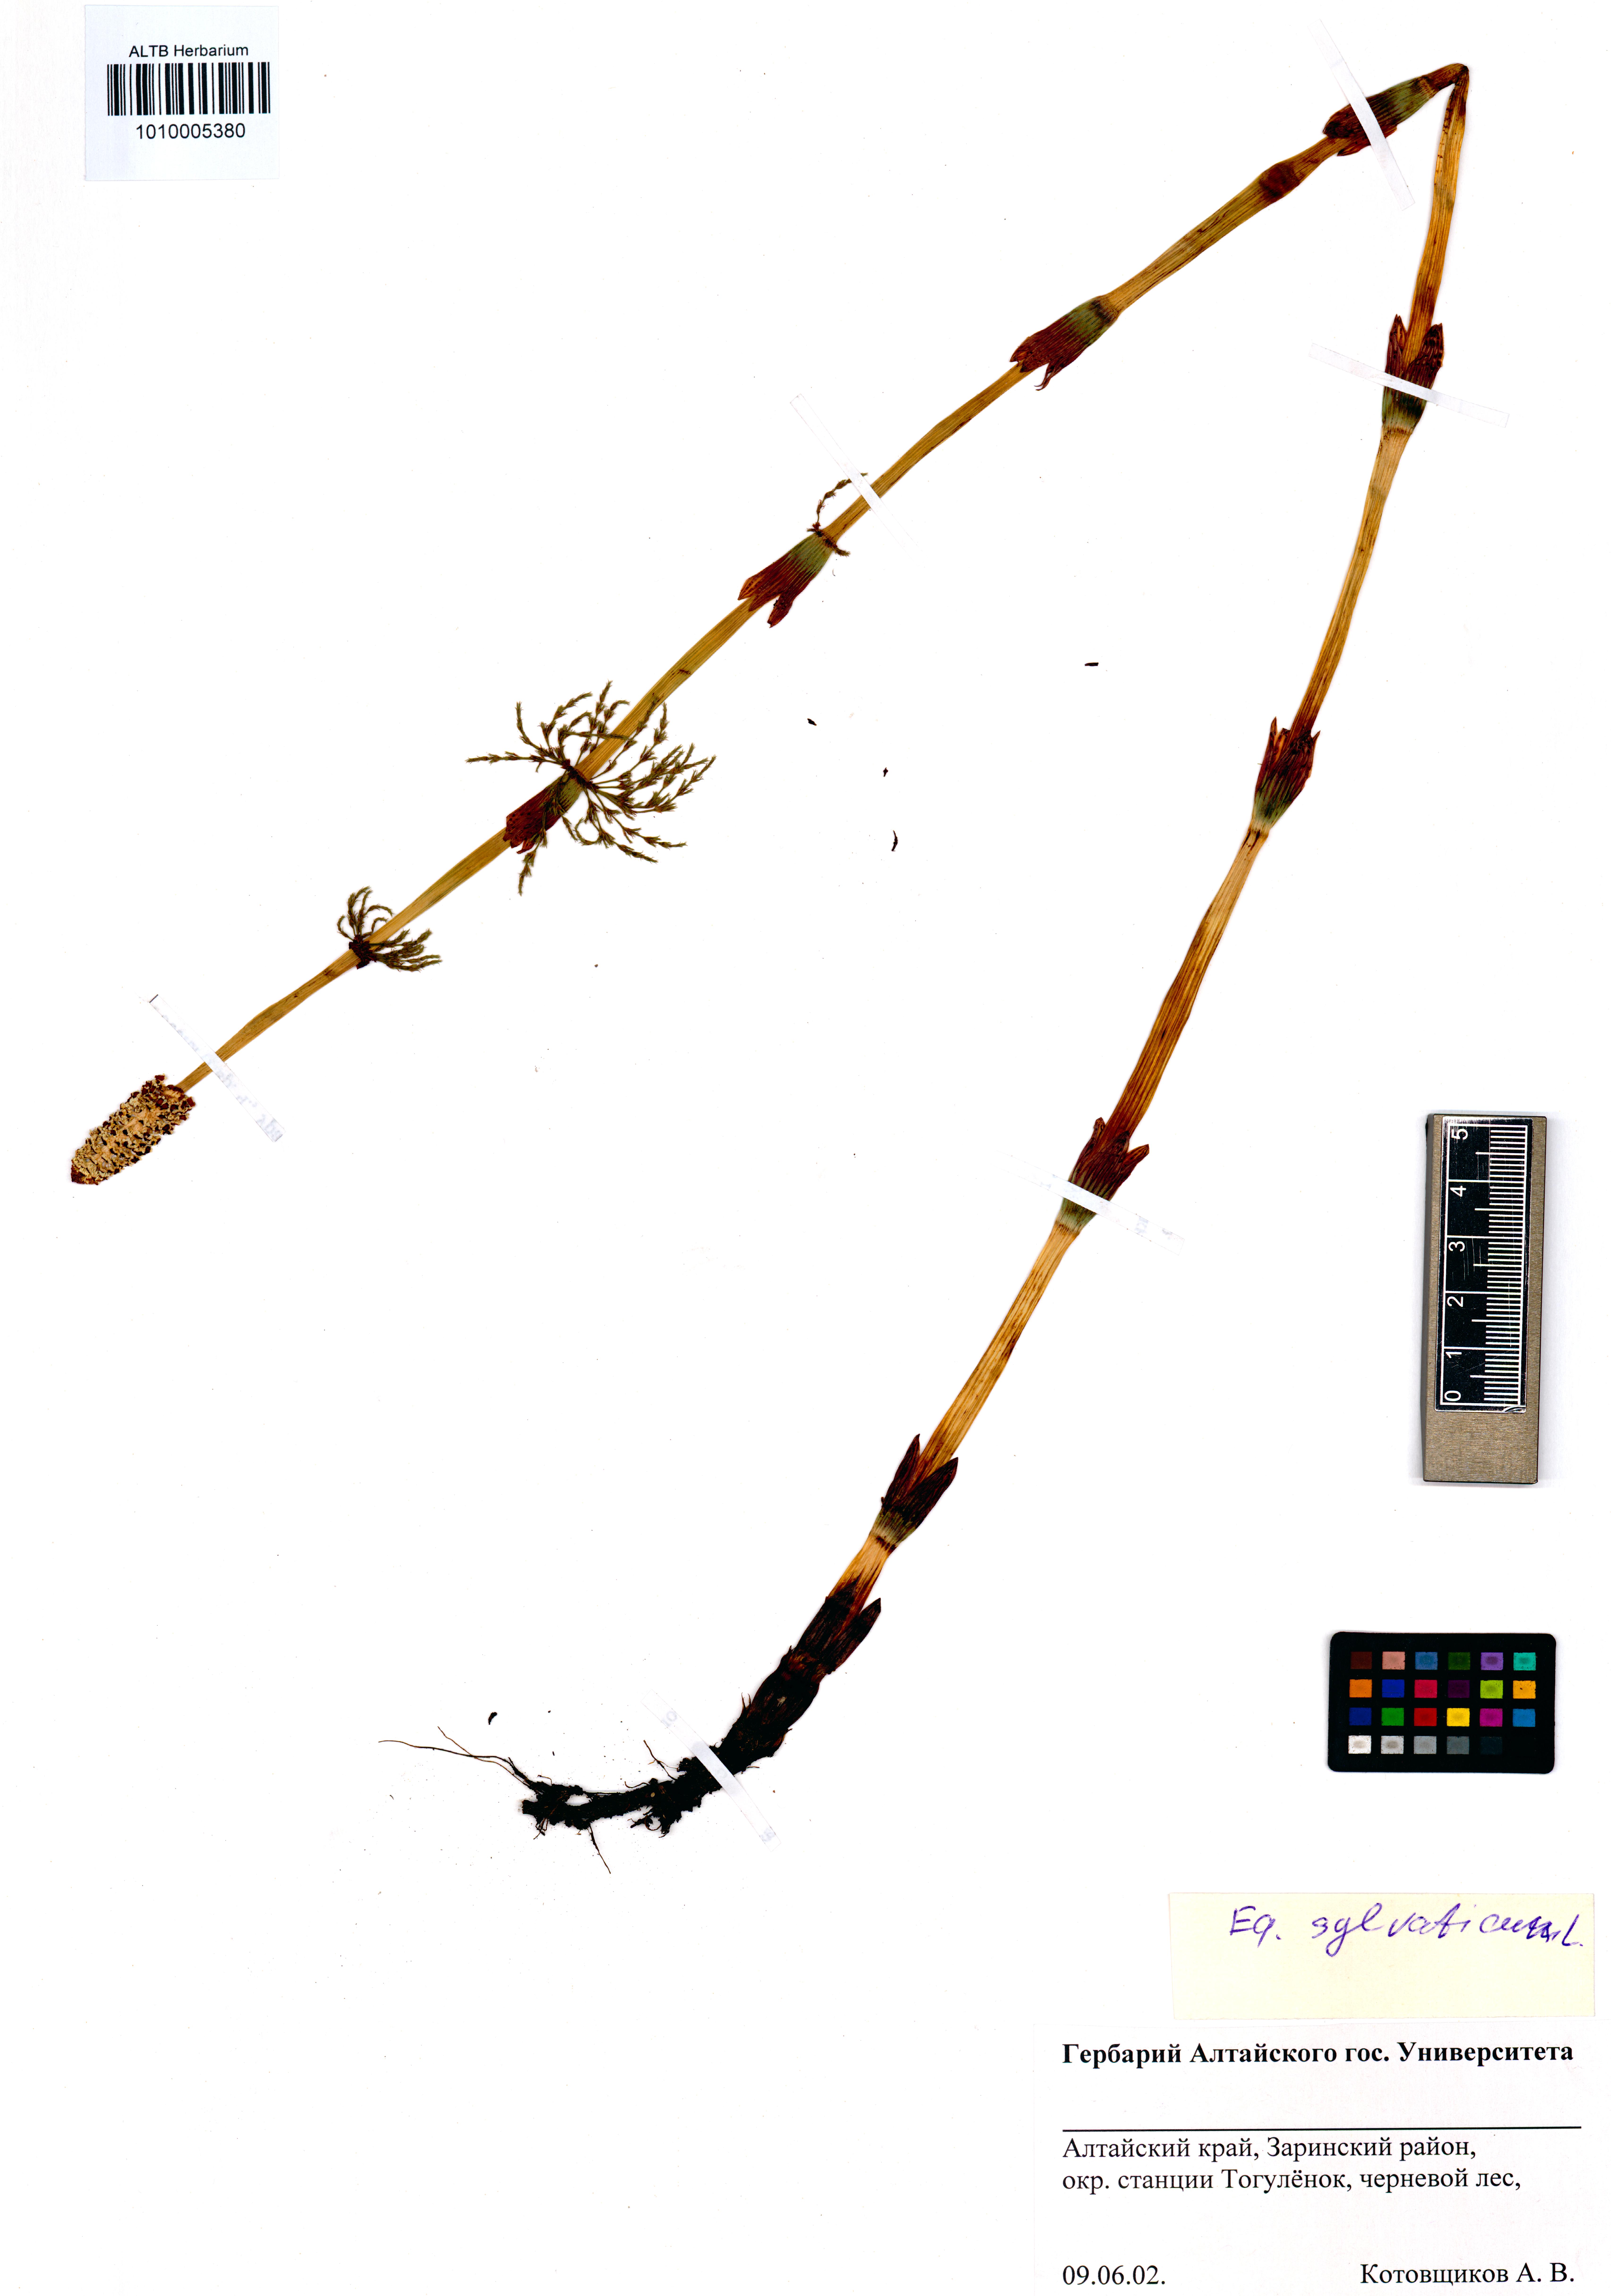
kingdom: Plantae
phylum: Tracheophyta
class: Polypodiopsida
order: Equisetales
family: Equisetaceae
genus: Equisetum
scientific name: Equisetum sylvaticum
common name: Wood horsetail
